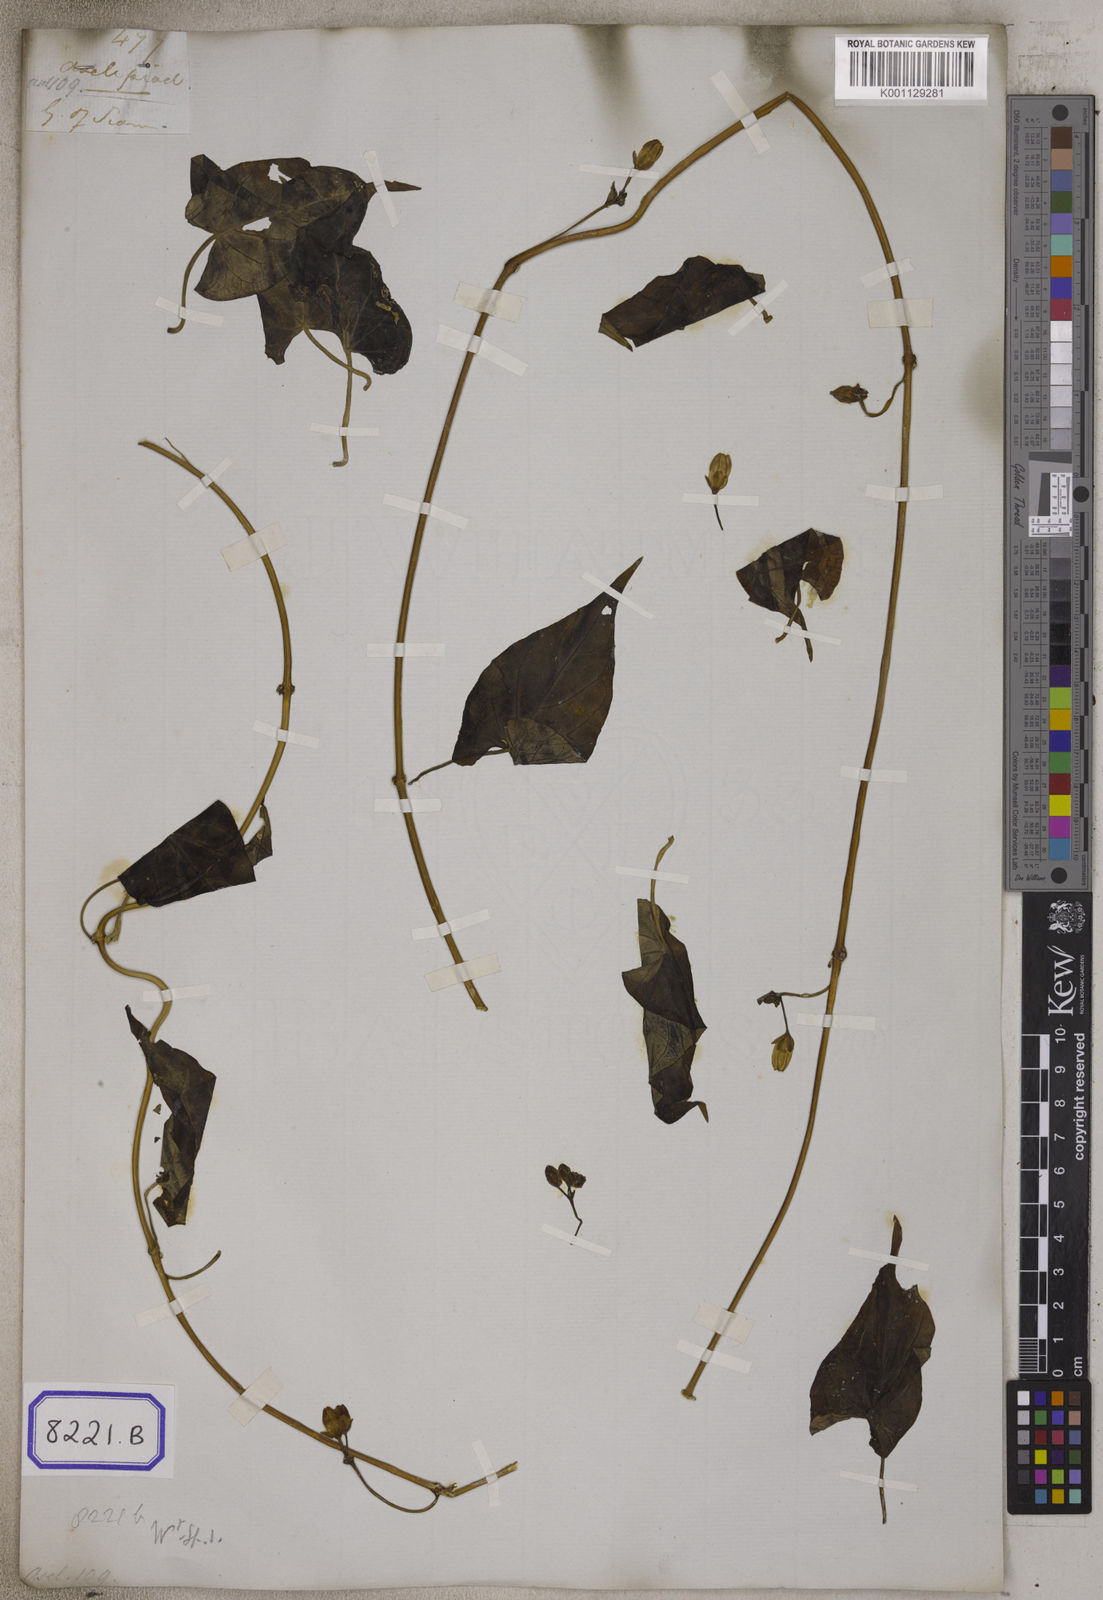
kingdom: Plantae
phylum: Tracheophyta
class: Magnoliopsida
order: Gentianales
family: Apocynaceae
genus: Cynanchum
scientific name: Cynanchum pulchellum
